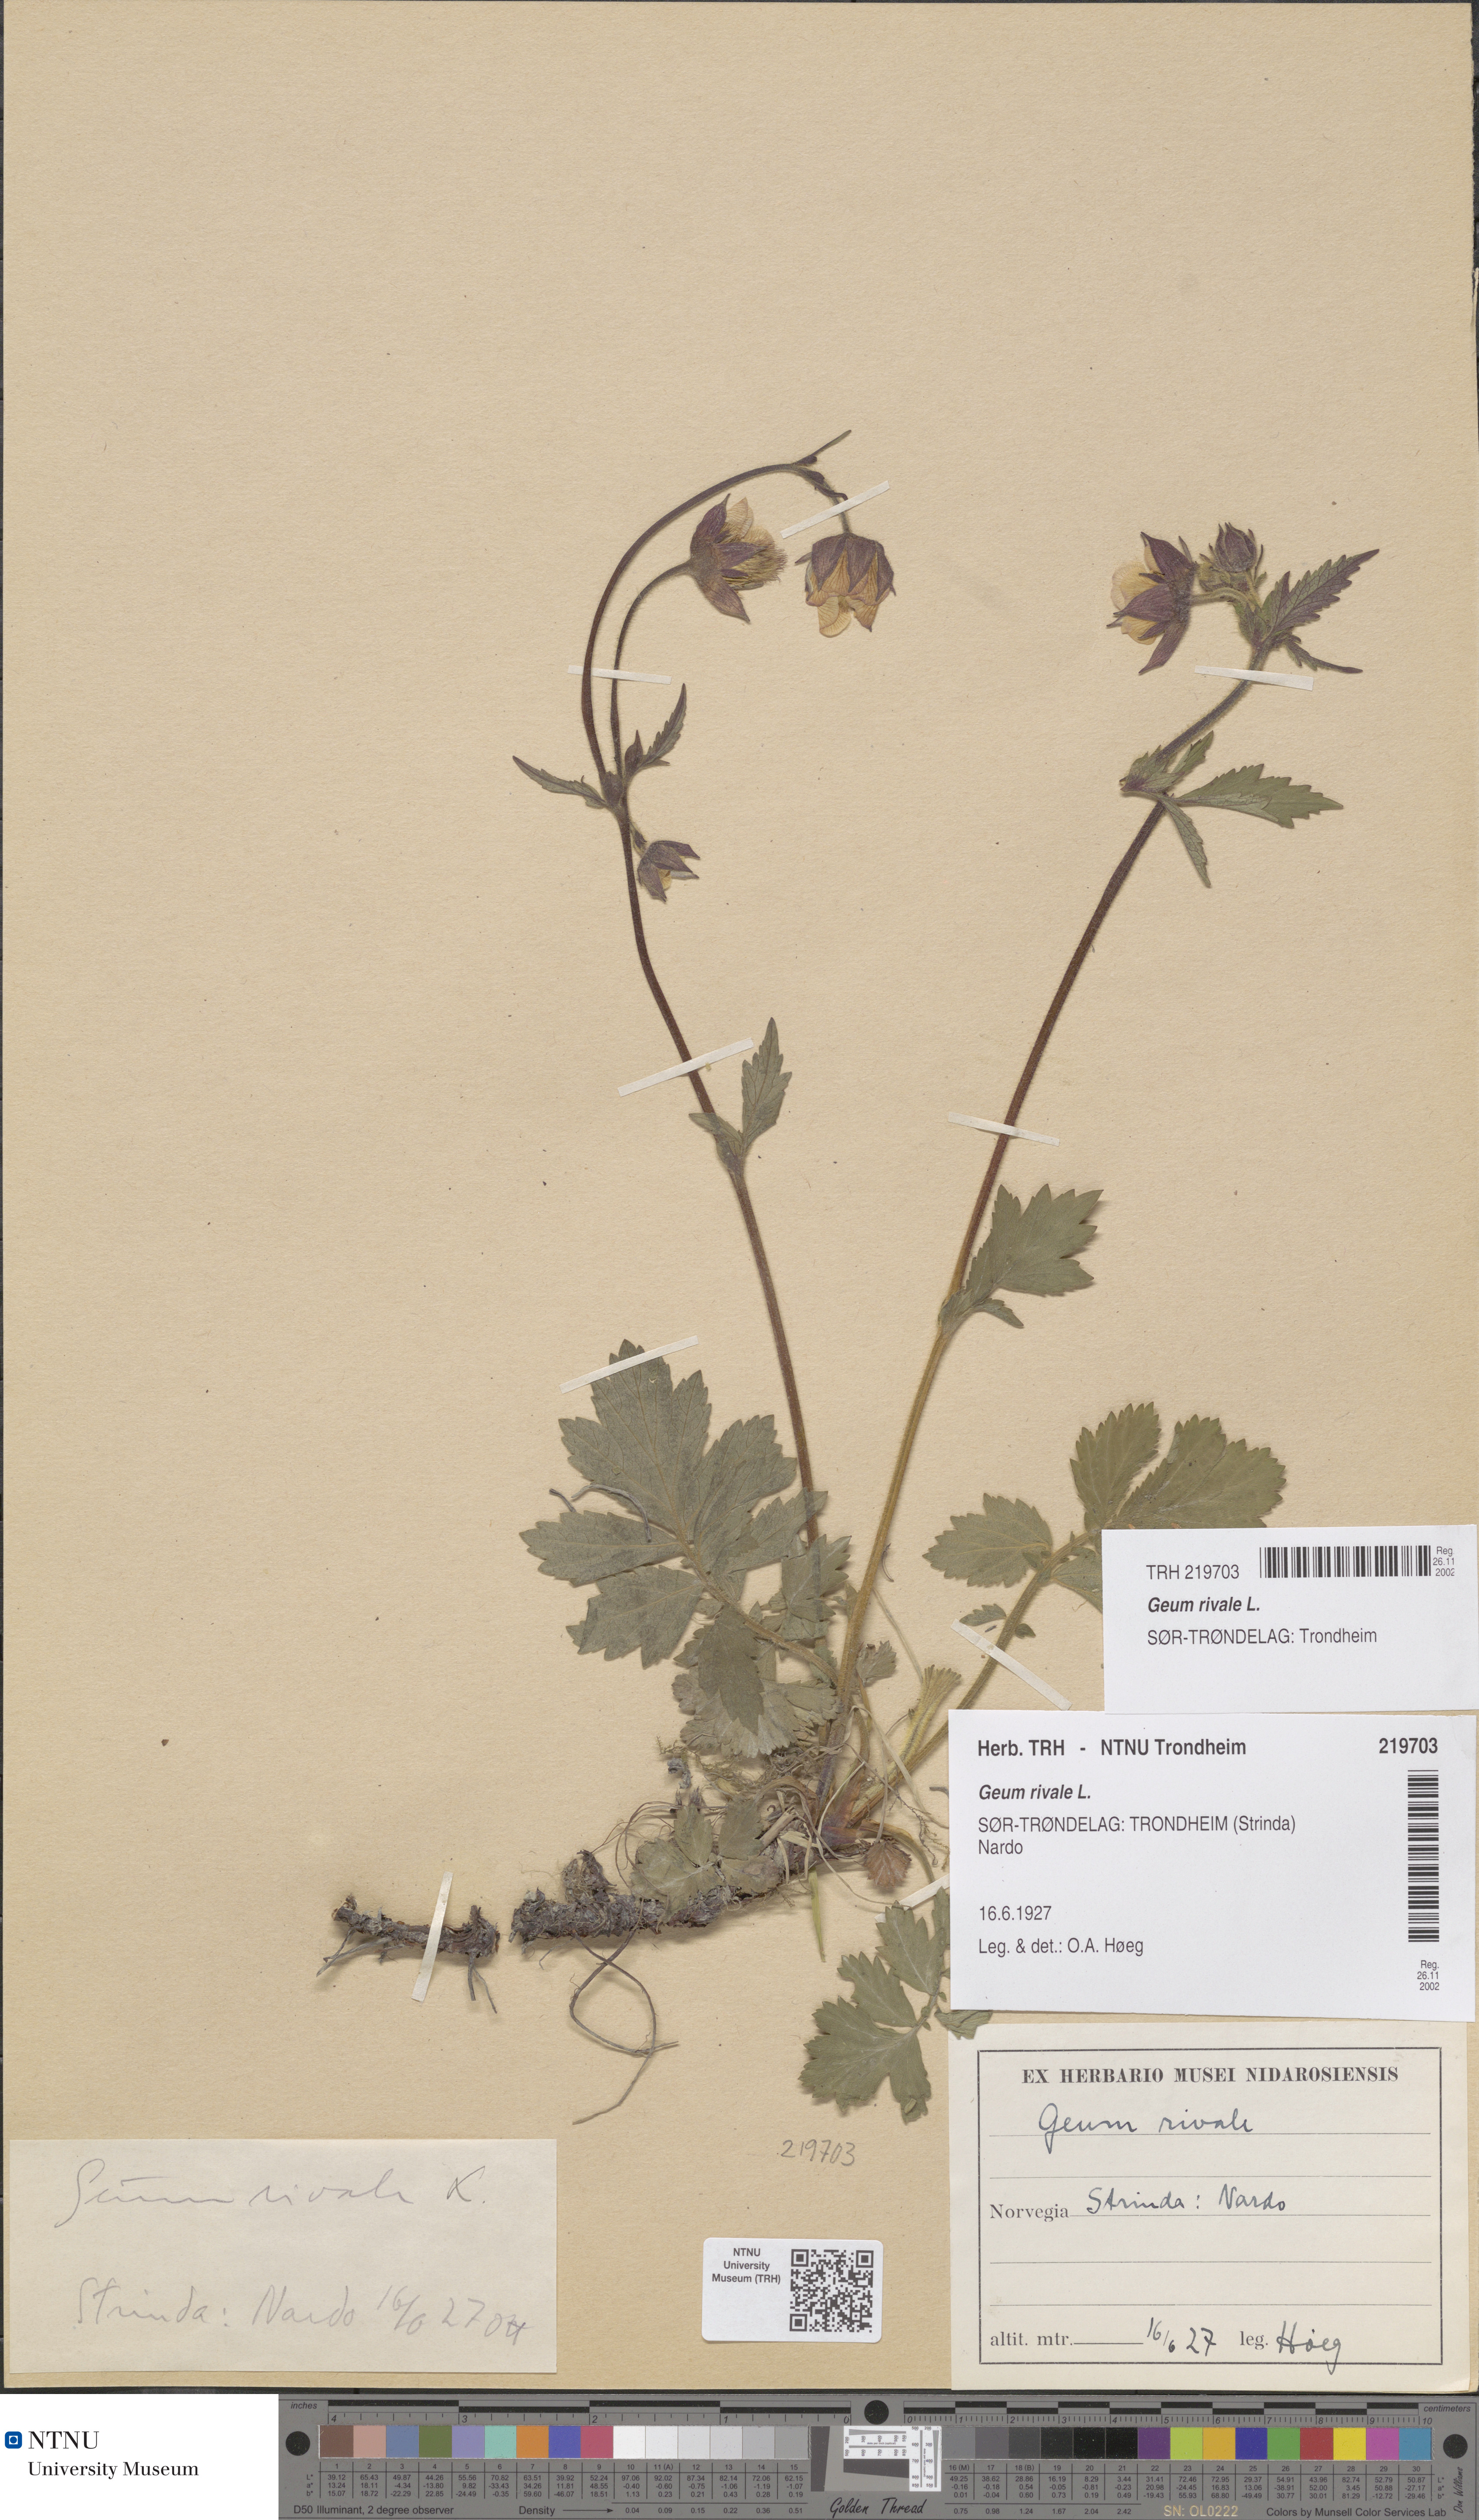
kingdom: Plantae
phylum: Tracheophyta
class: Magnoliopsida
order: Rosales
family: Rosaceae
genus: Geum
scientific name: Geum rivale
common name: Water avens
